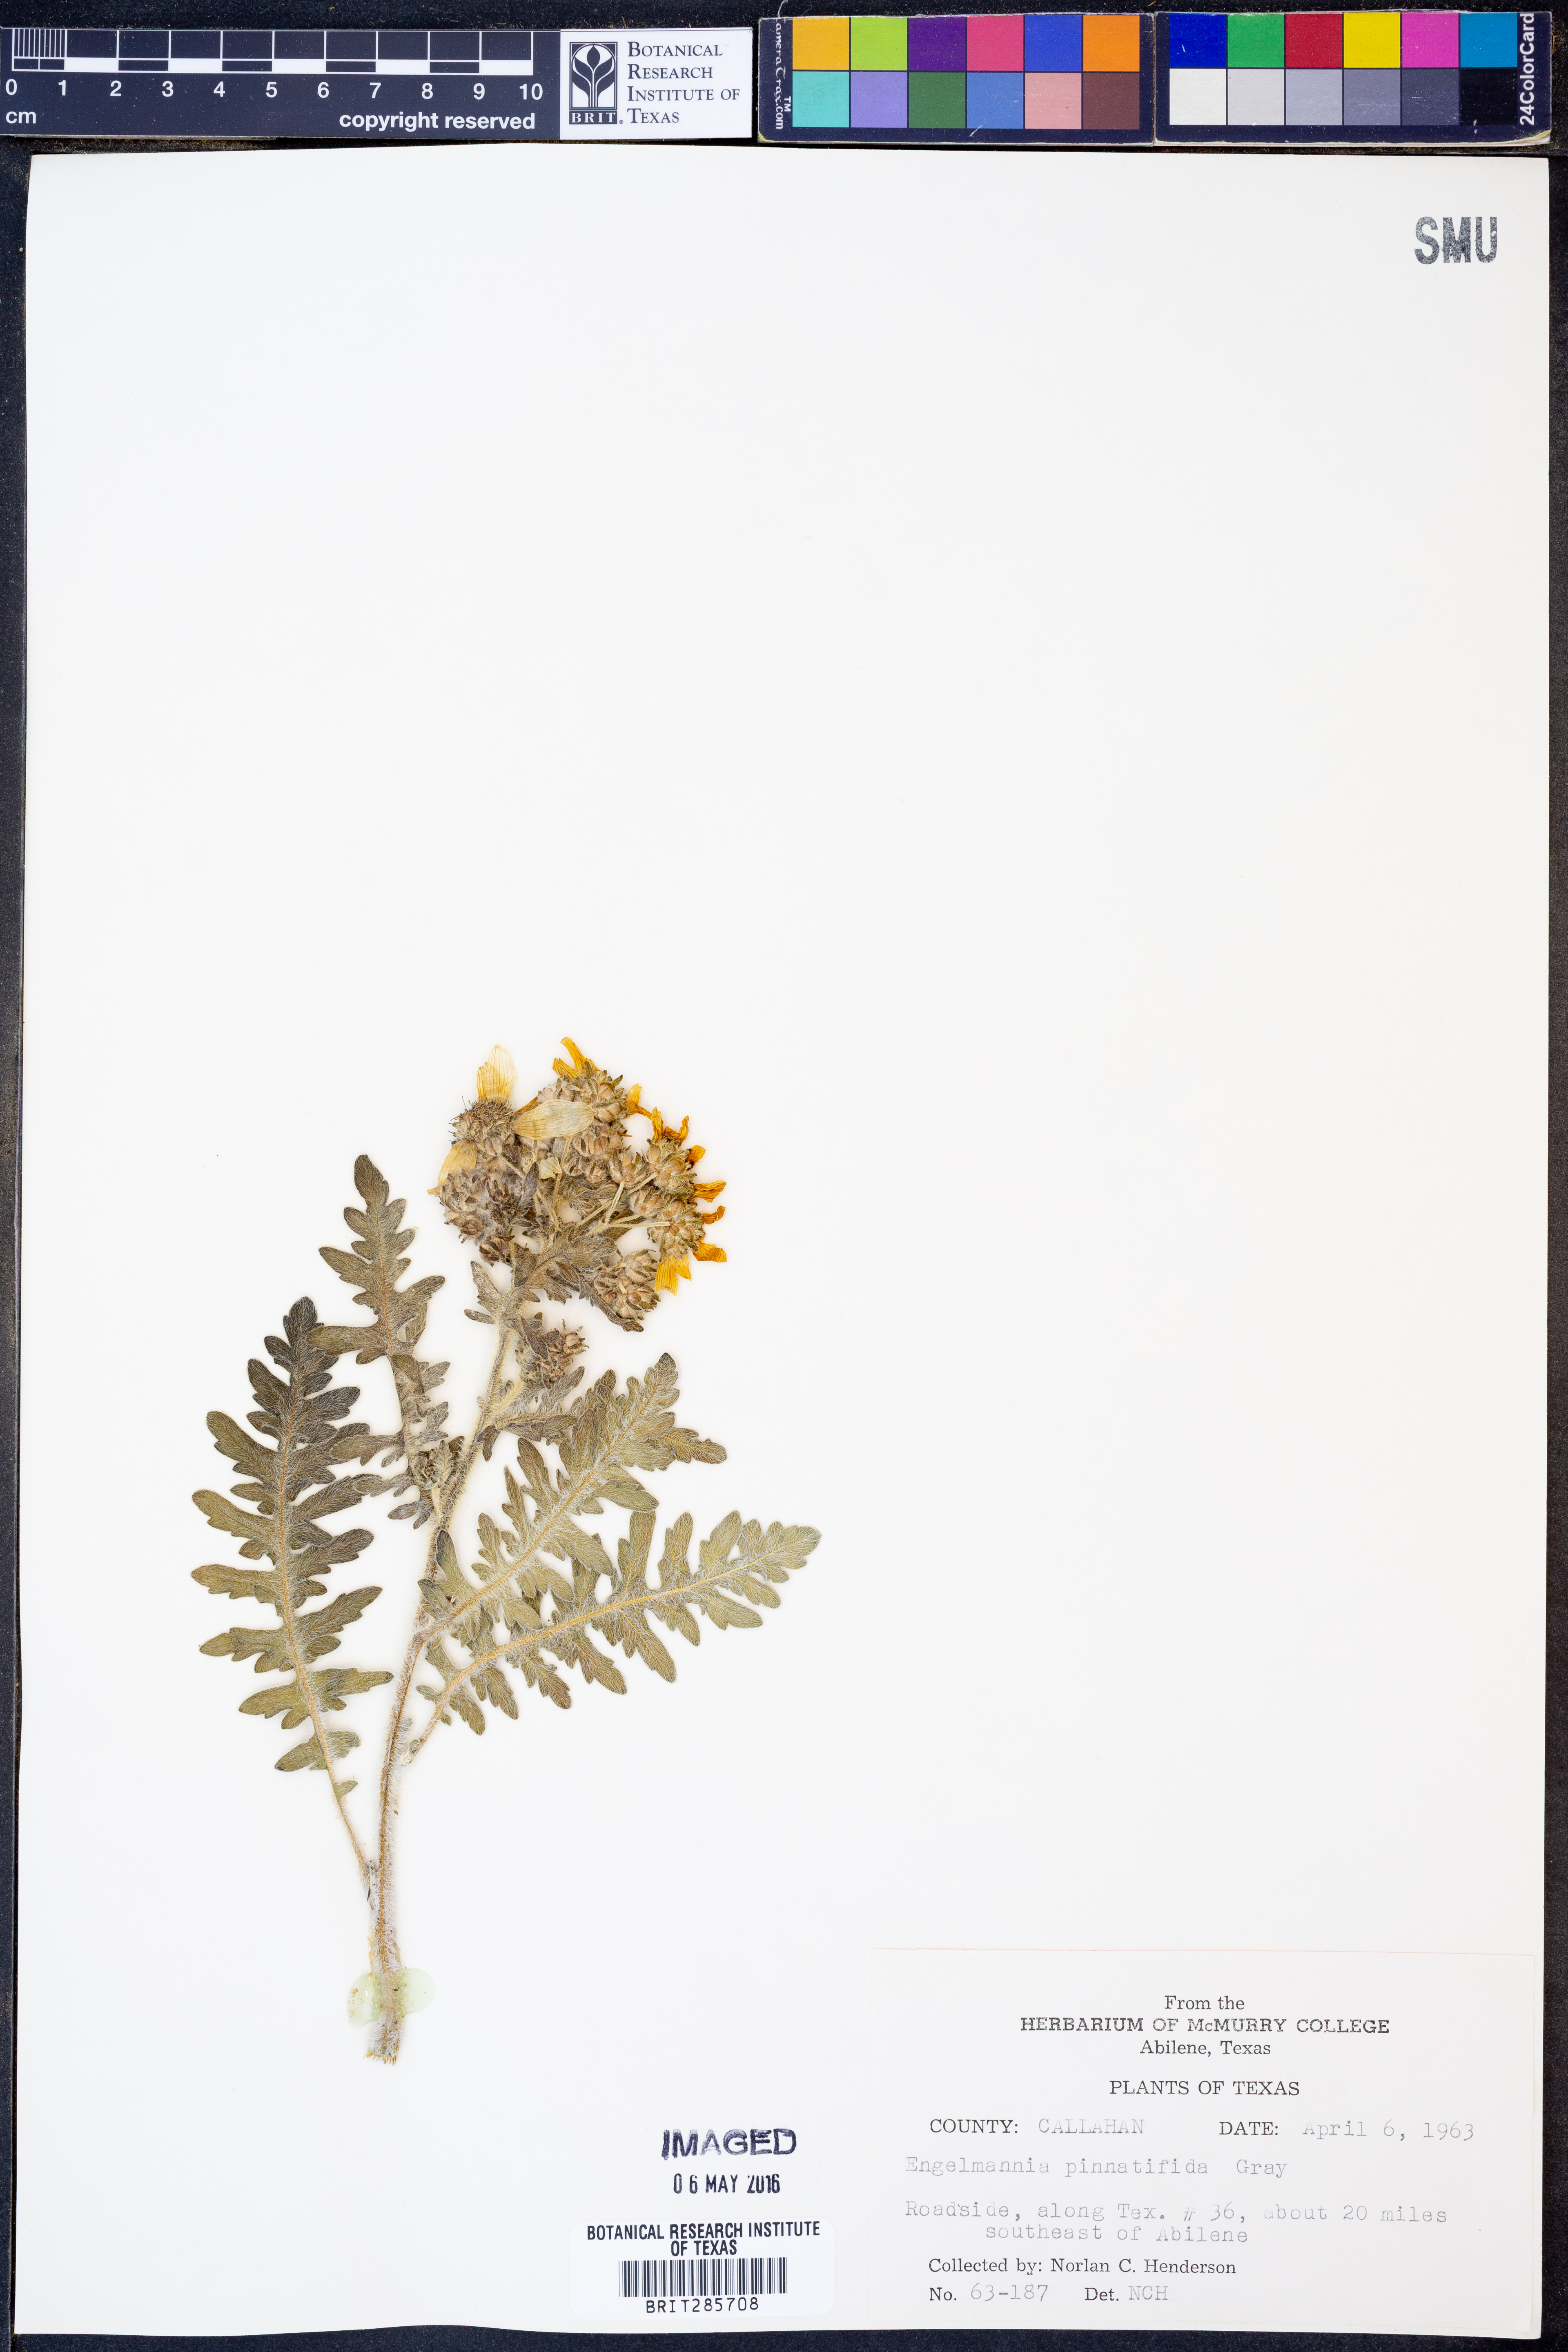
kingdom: Plantae
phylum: Tracheophyta
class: Magnoliopsida
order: Asterales
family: Asteraceae
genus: Engelmannia
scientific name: Engelmannia peristenia
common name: Engelmann's daisy
